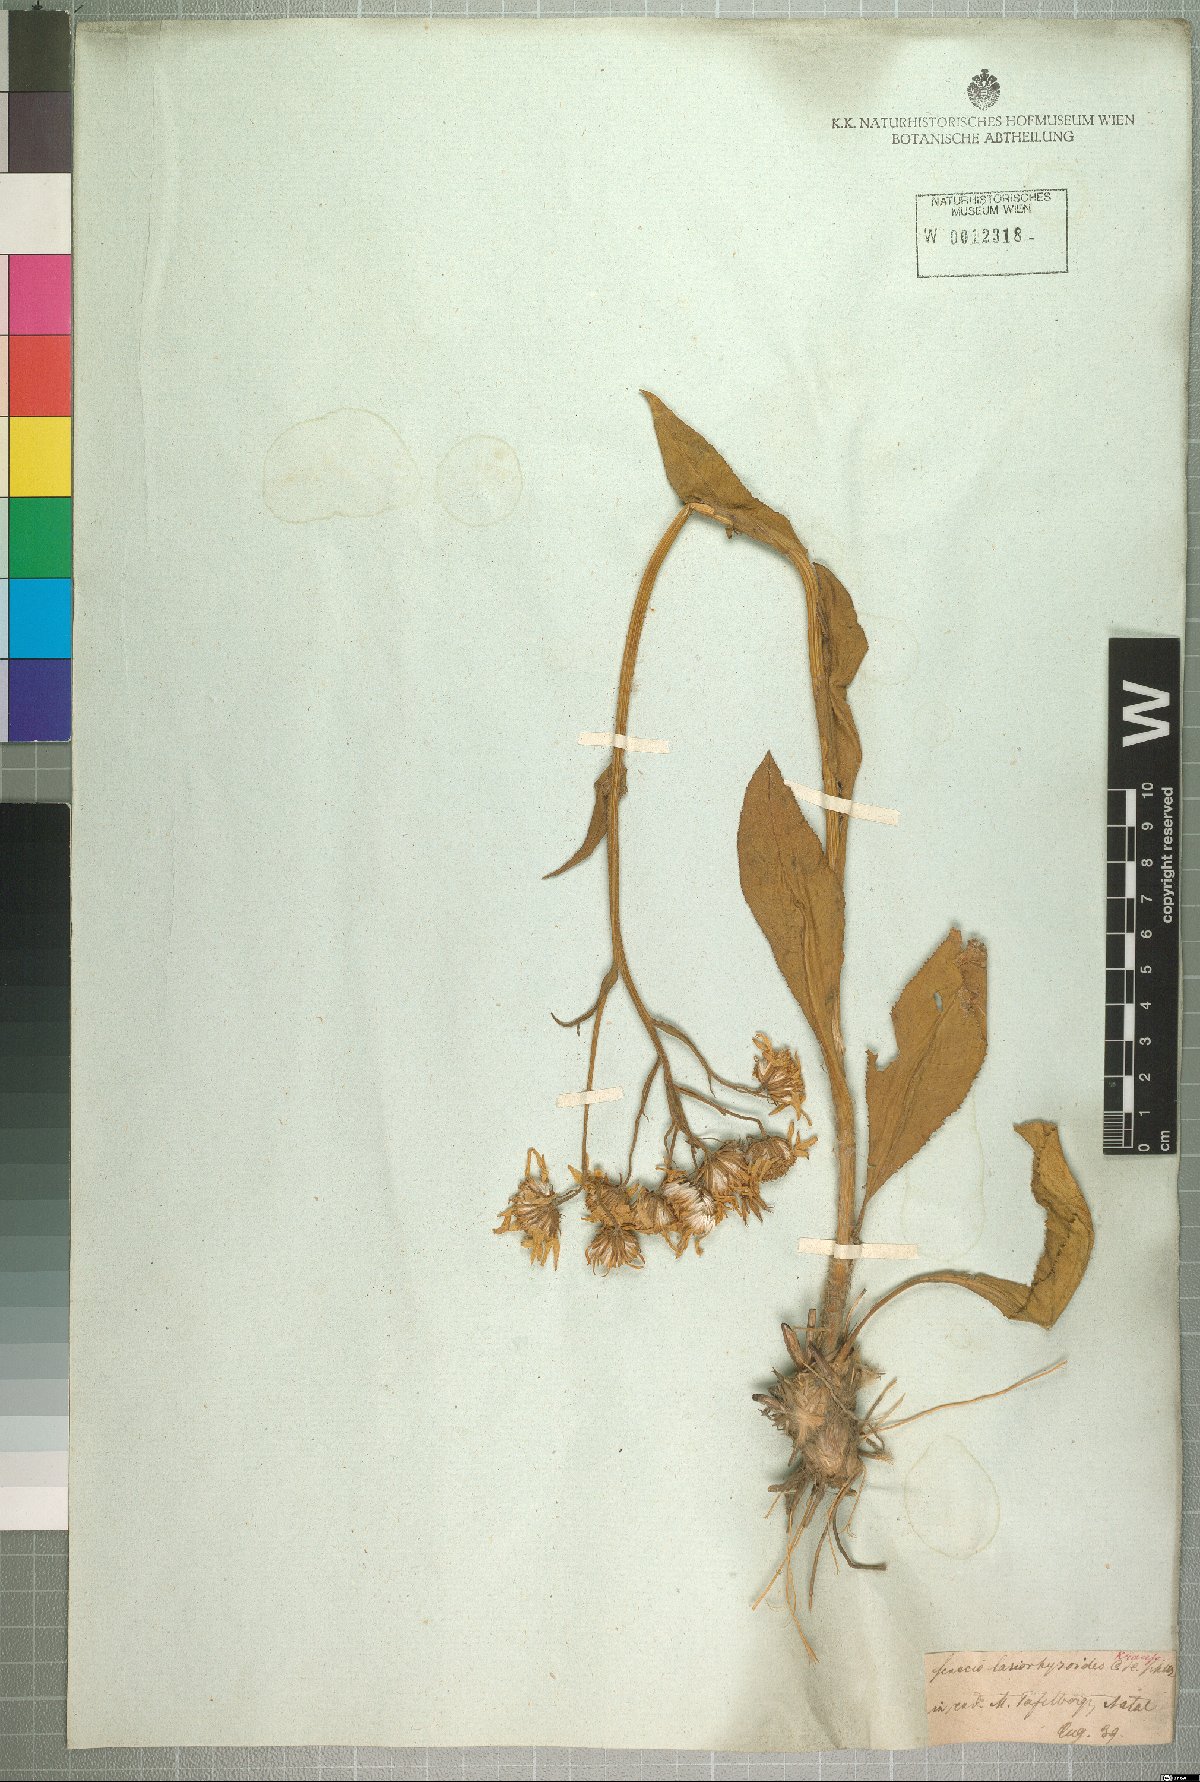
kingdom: Plantae
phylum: Tracheophyta
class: Magnoliopsida
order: Asterales
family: Asteraceae
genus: Senecio
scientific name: Senecio coronatus
